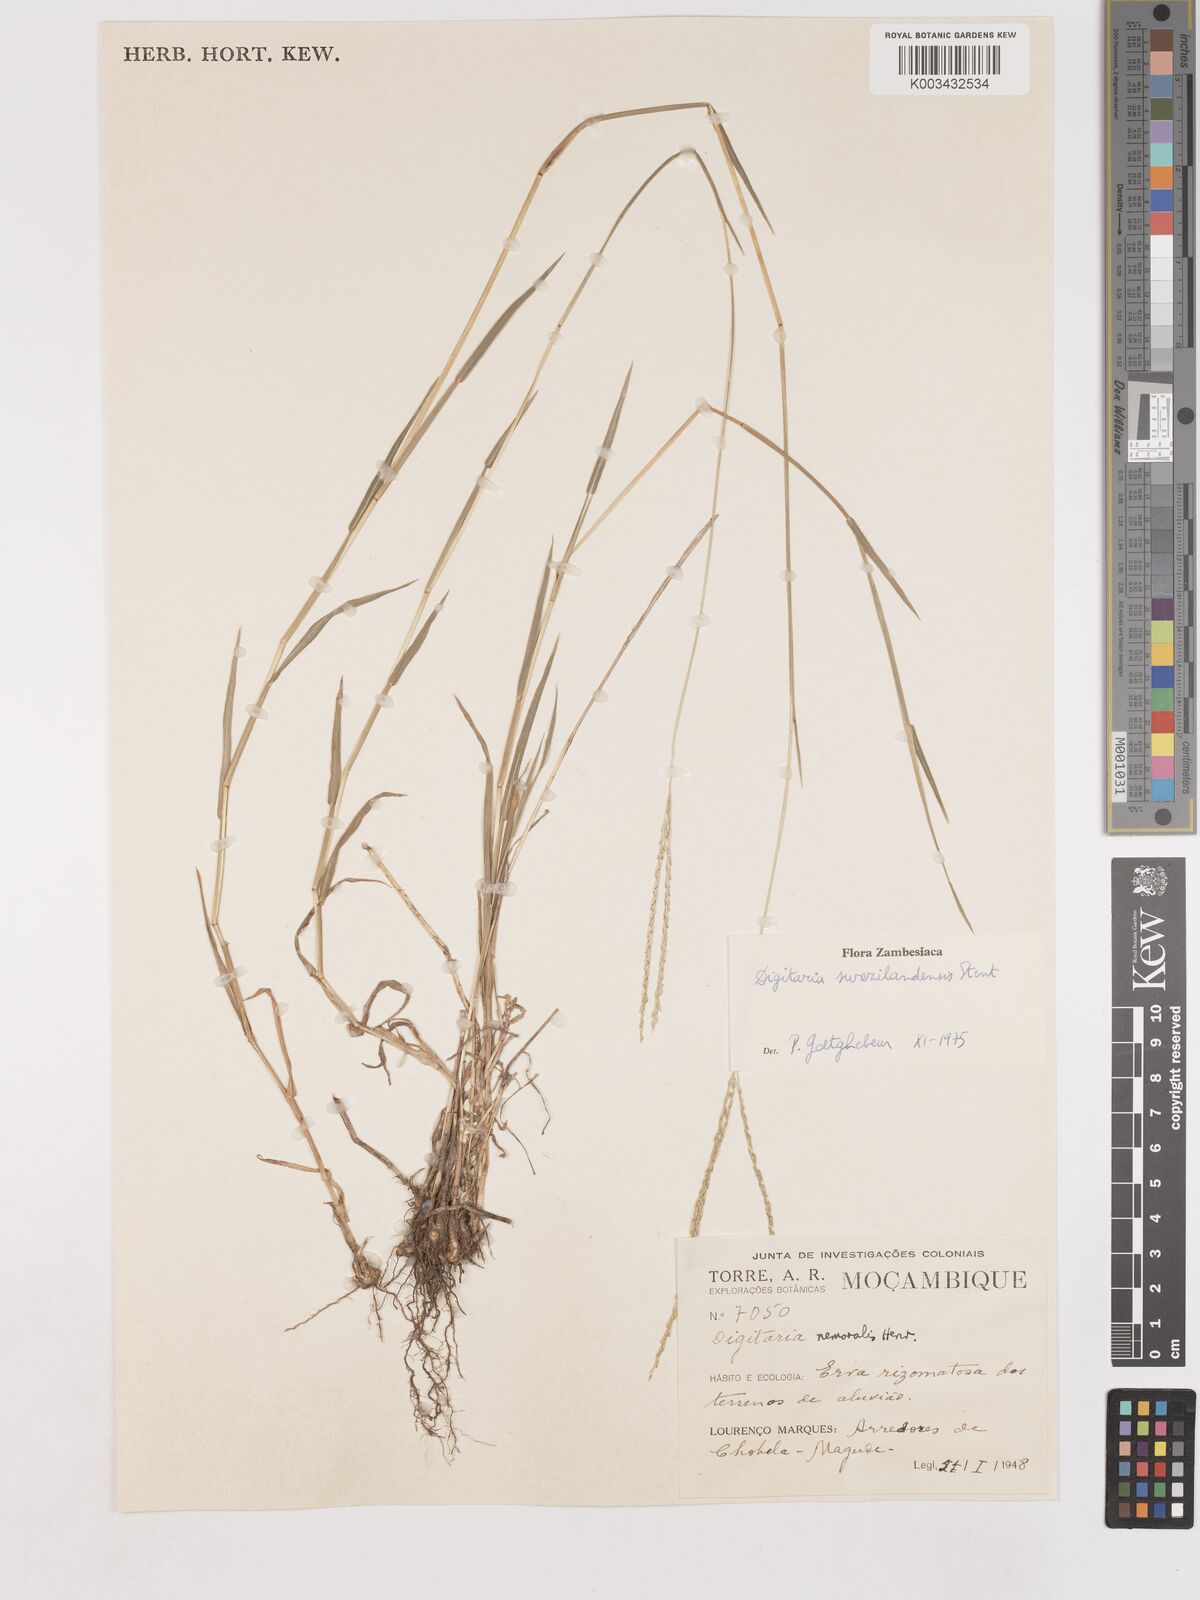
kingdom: Plantae
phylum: Tracheophyta
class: Liliopsida
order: Poales
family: Poaceae
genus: Digitaria
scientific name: Digitaria didactyla
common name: Blue couch
